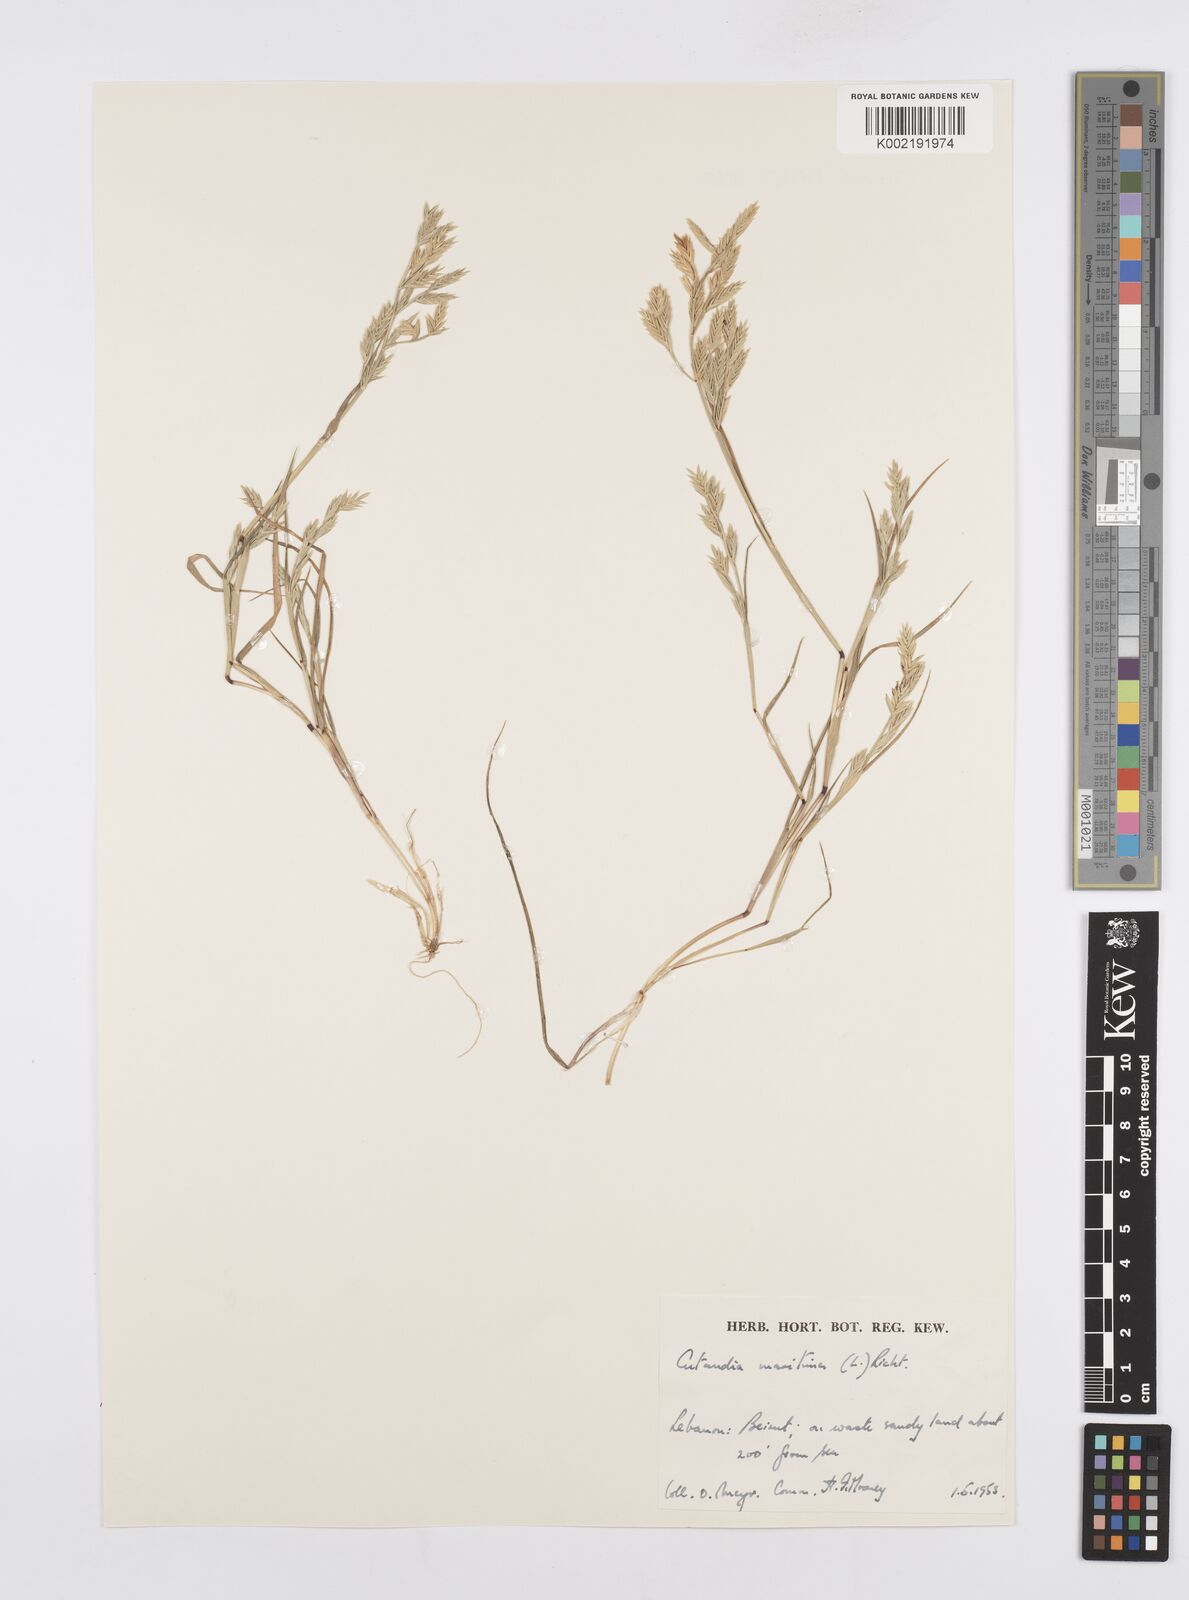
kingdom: Plantae
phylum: Tracheophyta
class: Liliopsida
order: Poales
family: Poaceae
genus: Cutandia
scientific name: Cutandia maritima
